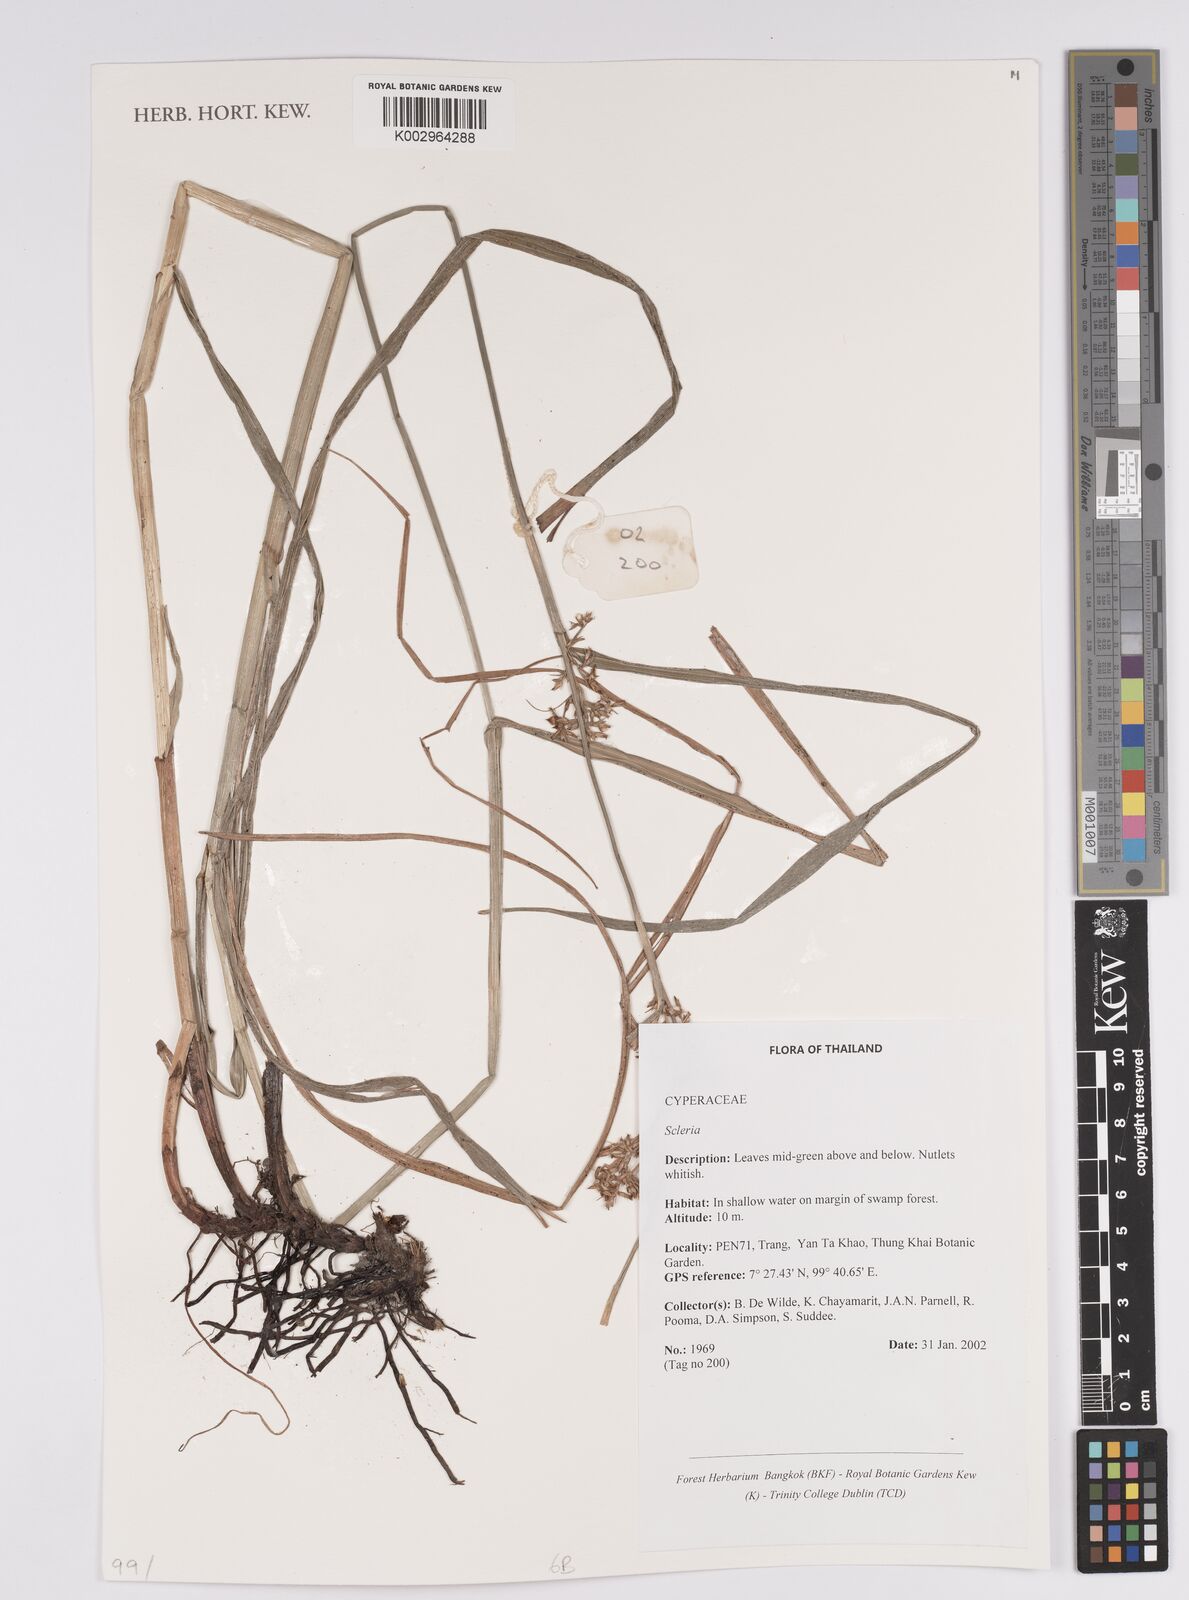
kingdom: Plantae
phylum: Tracheophyta
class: Liliopsida
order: Poales
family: Cyperaceae
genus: Scleria
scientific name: Scleria
